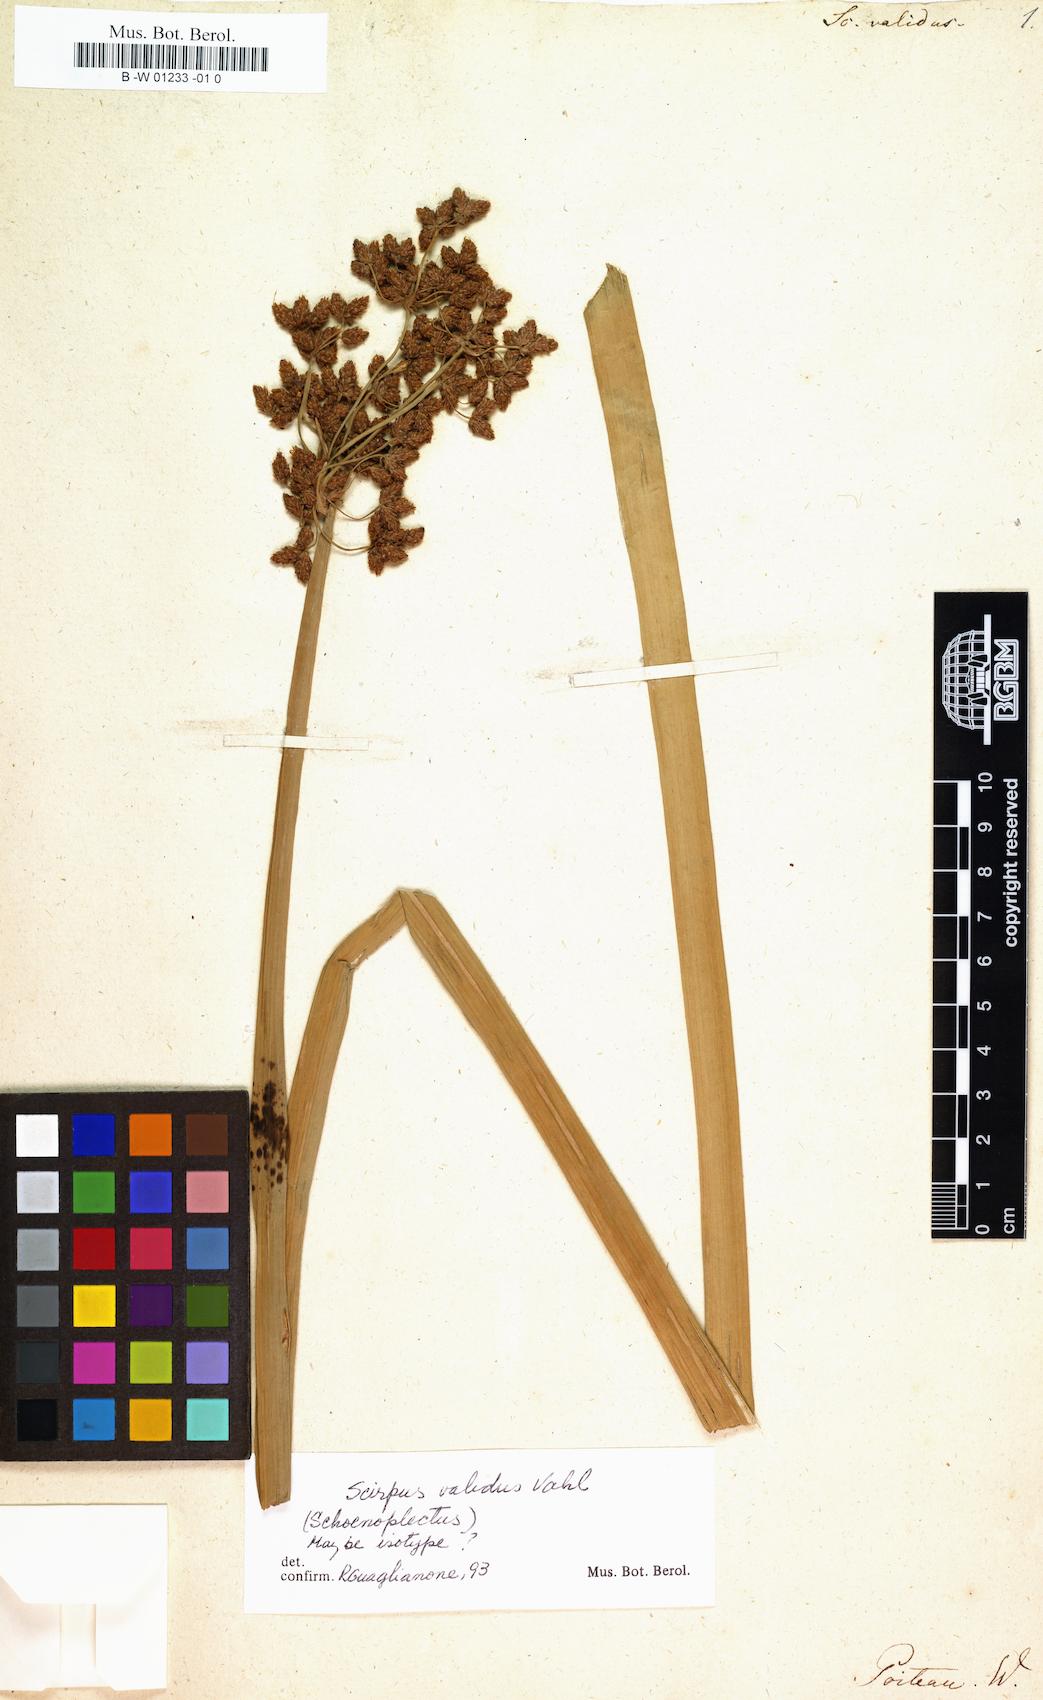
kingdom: Plantae
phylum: Tracheophyta
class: Liliopsida
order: Poales
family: Cyperaceae
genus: Schoenoplectus
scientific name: Schoenoplectus tabernaemontani
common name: Grey club-rush
